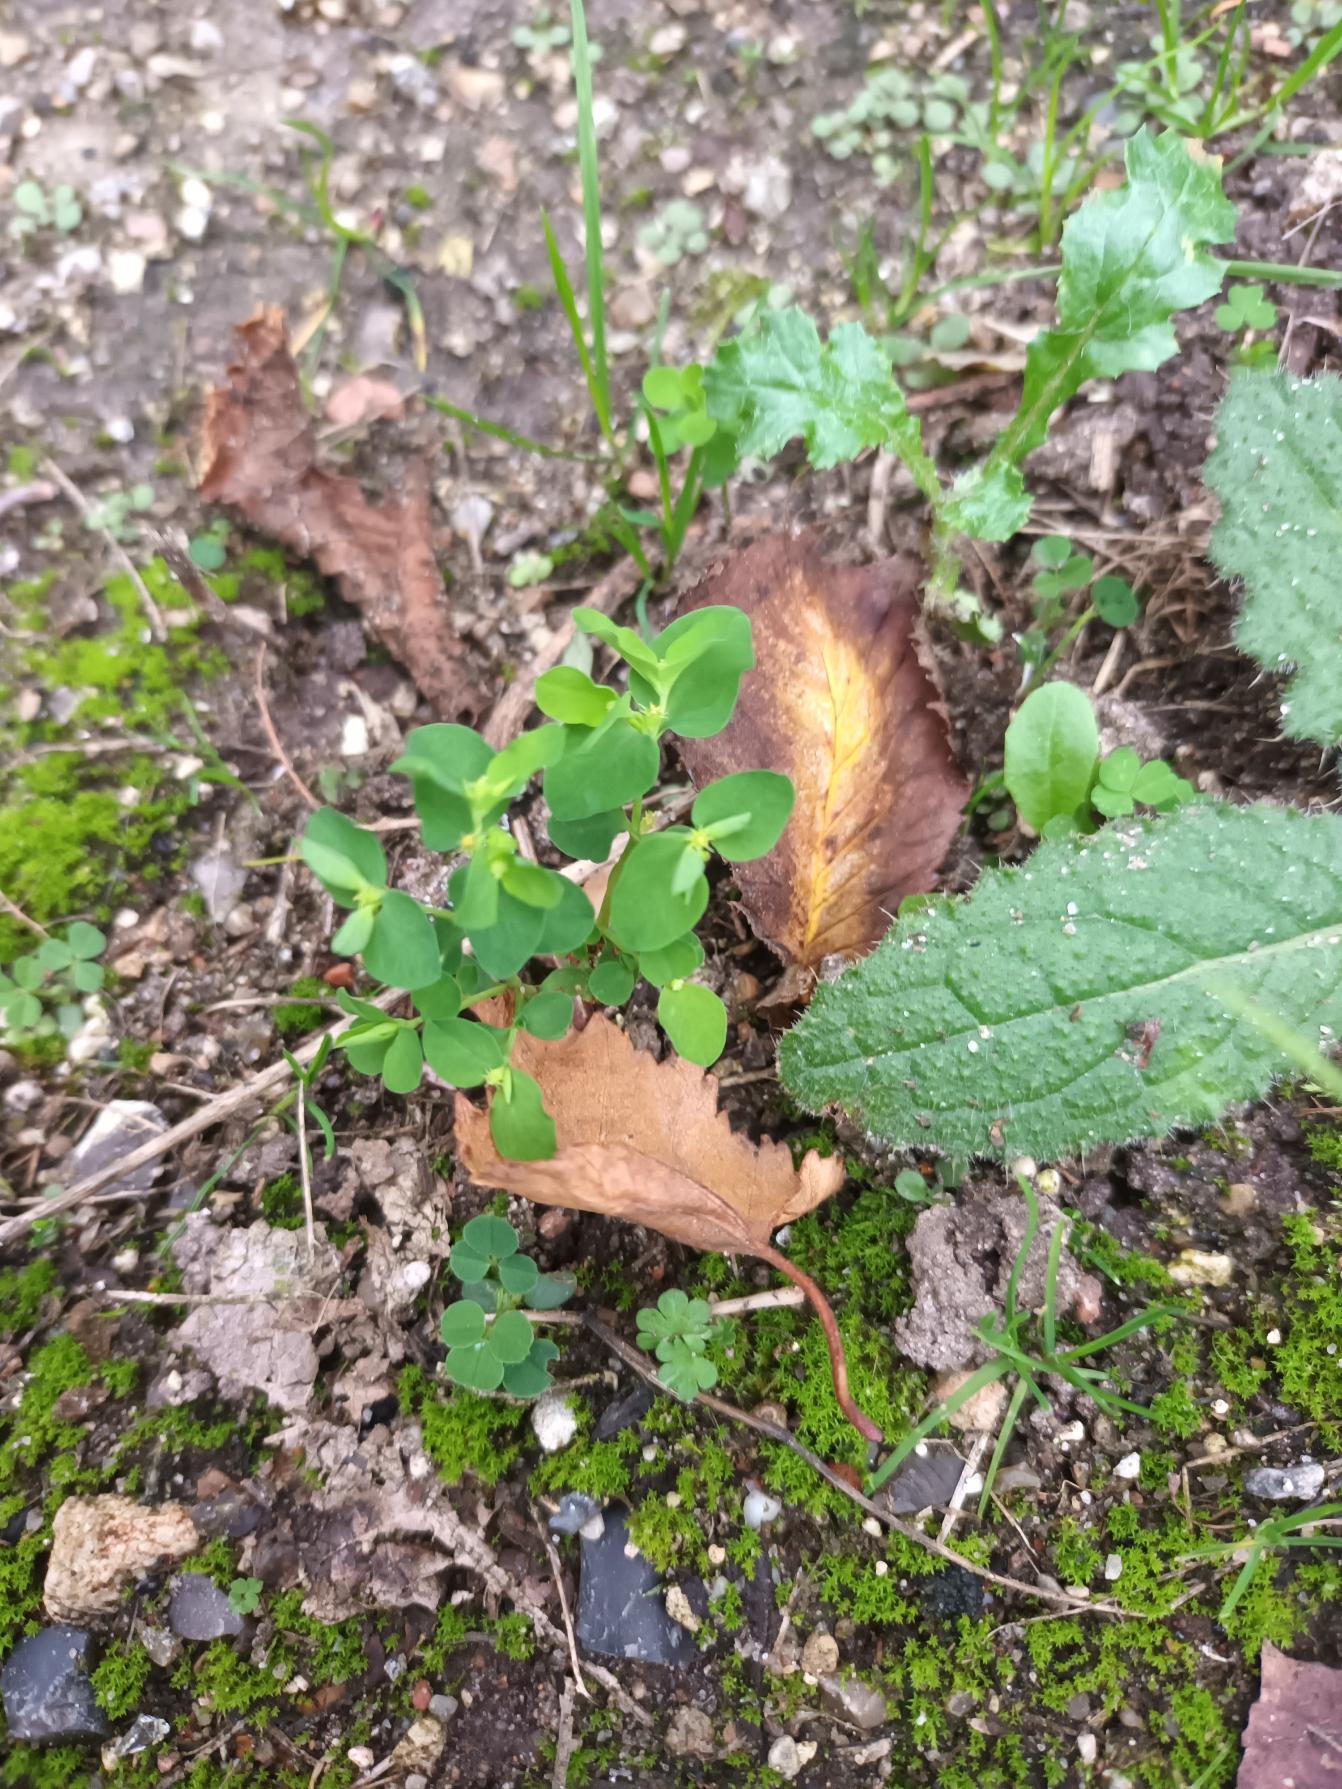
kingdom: Plantae
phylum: Tracheophyta
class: Magnoliopsida
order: Malpighiales
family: Euphorbiaceae
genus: Euphorbia
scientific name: Euphorbia peplus
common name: Gaffel-vortemælk
